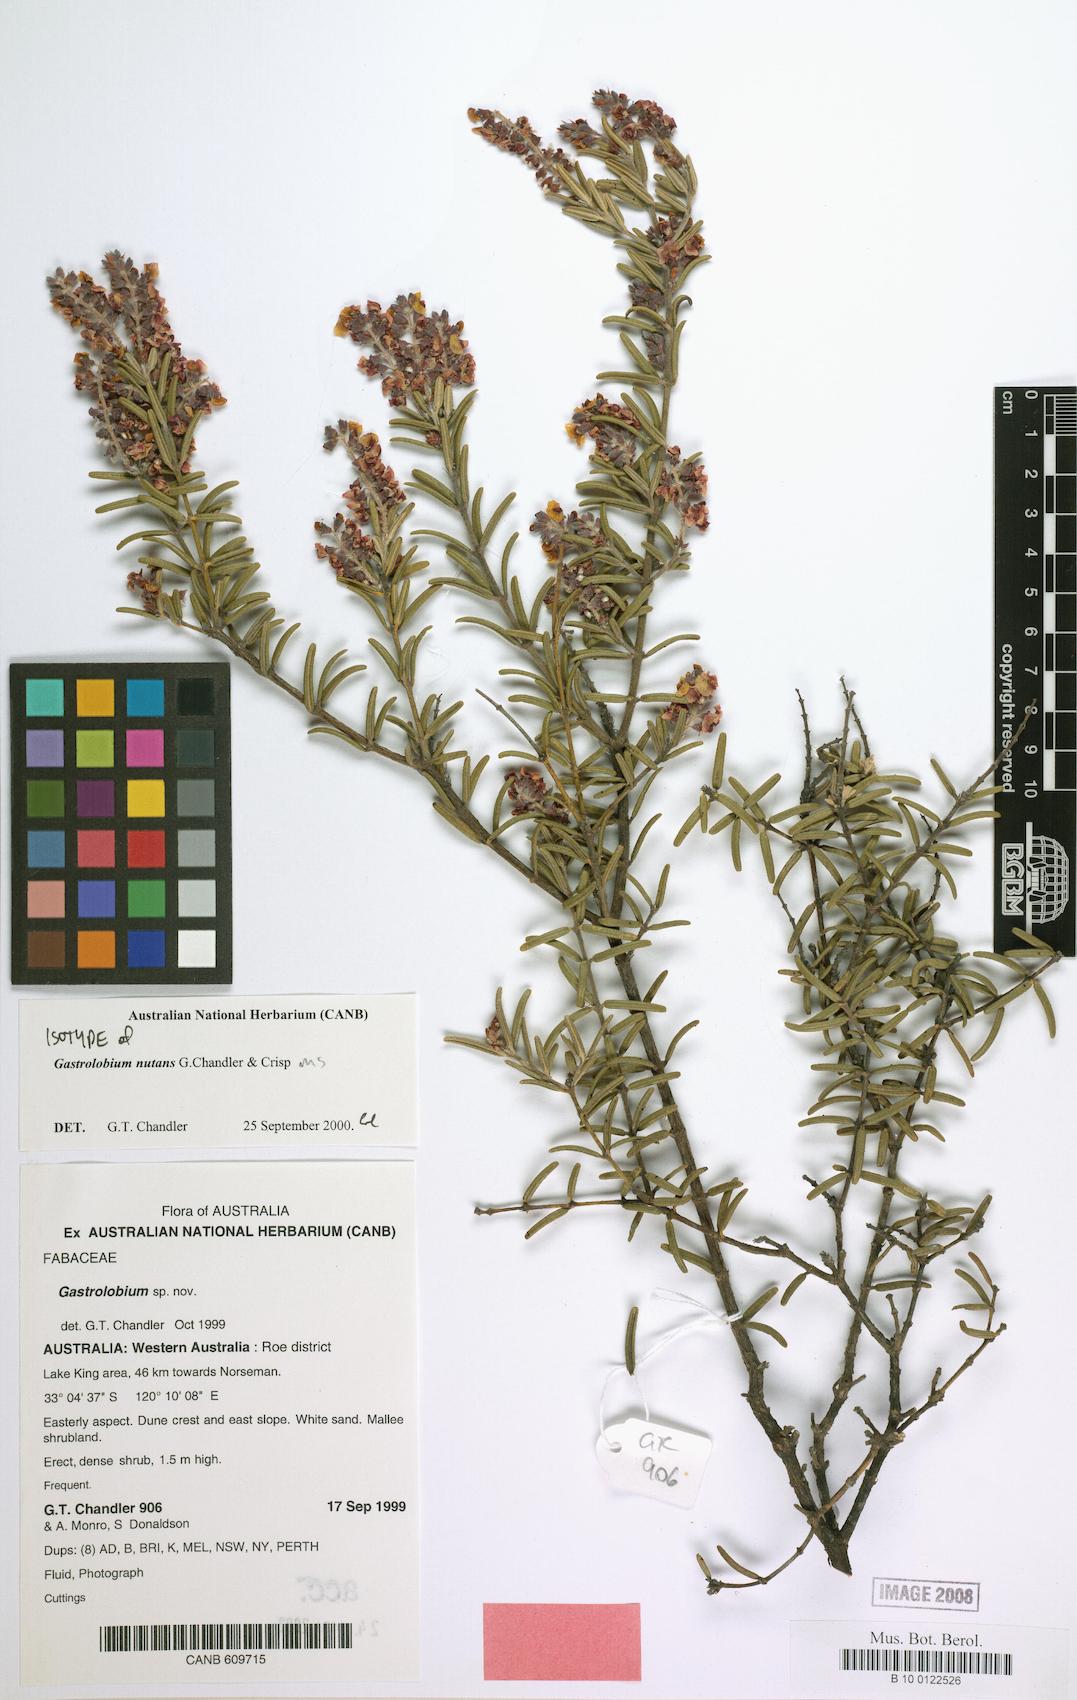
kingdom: Plantae
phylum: Tracheophyta
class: Magnoliopsida
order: Fabales
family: Fabaceae
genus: Gastrolobium
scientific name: Gastrolobium nutans
